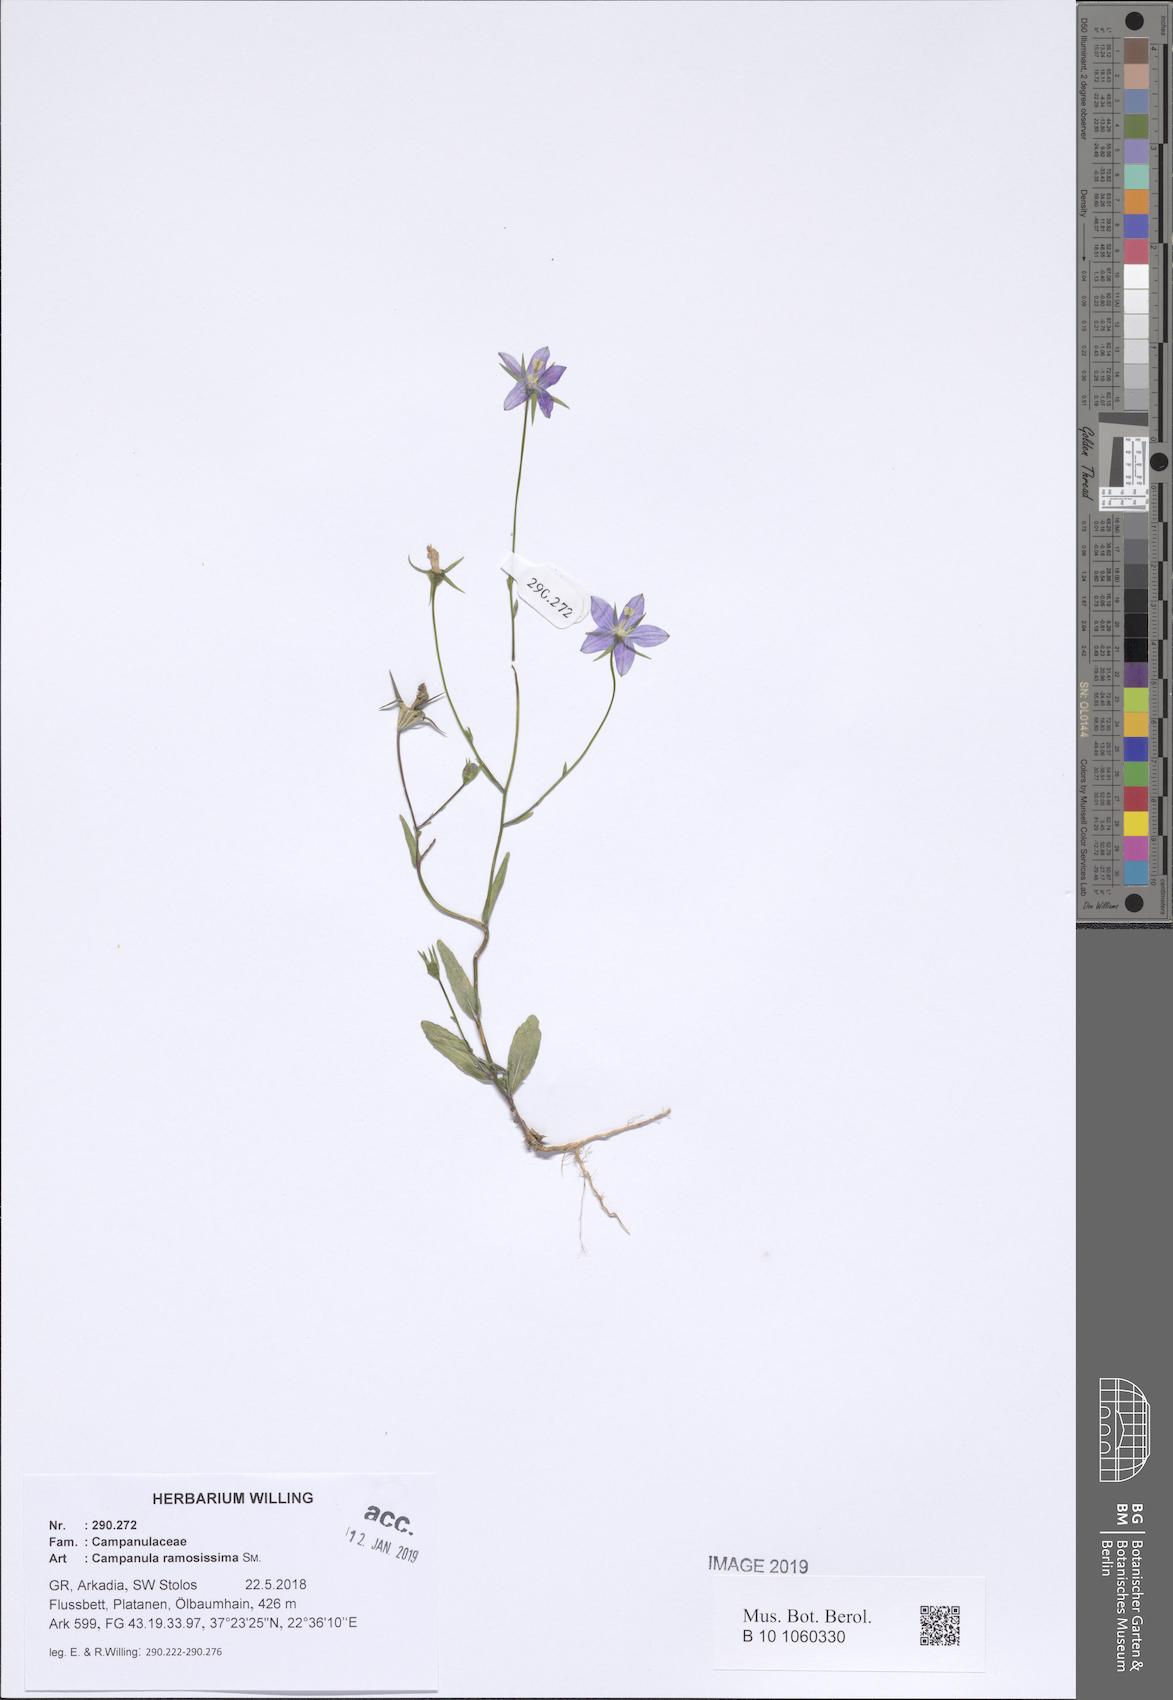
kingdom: Plantae
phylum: Tracheophyta
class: Magnoliopsida
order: Asterales
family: Campanulaceae
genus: Campanula
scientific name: Campanula ramosissima
